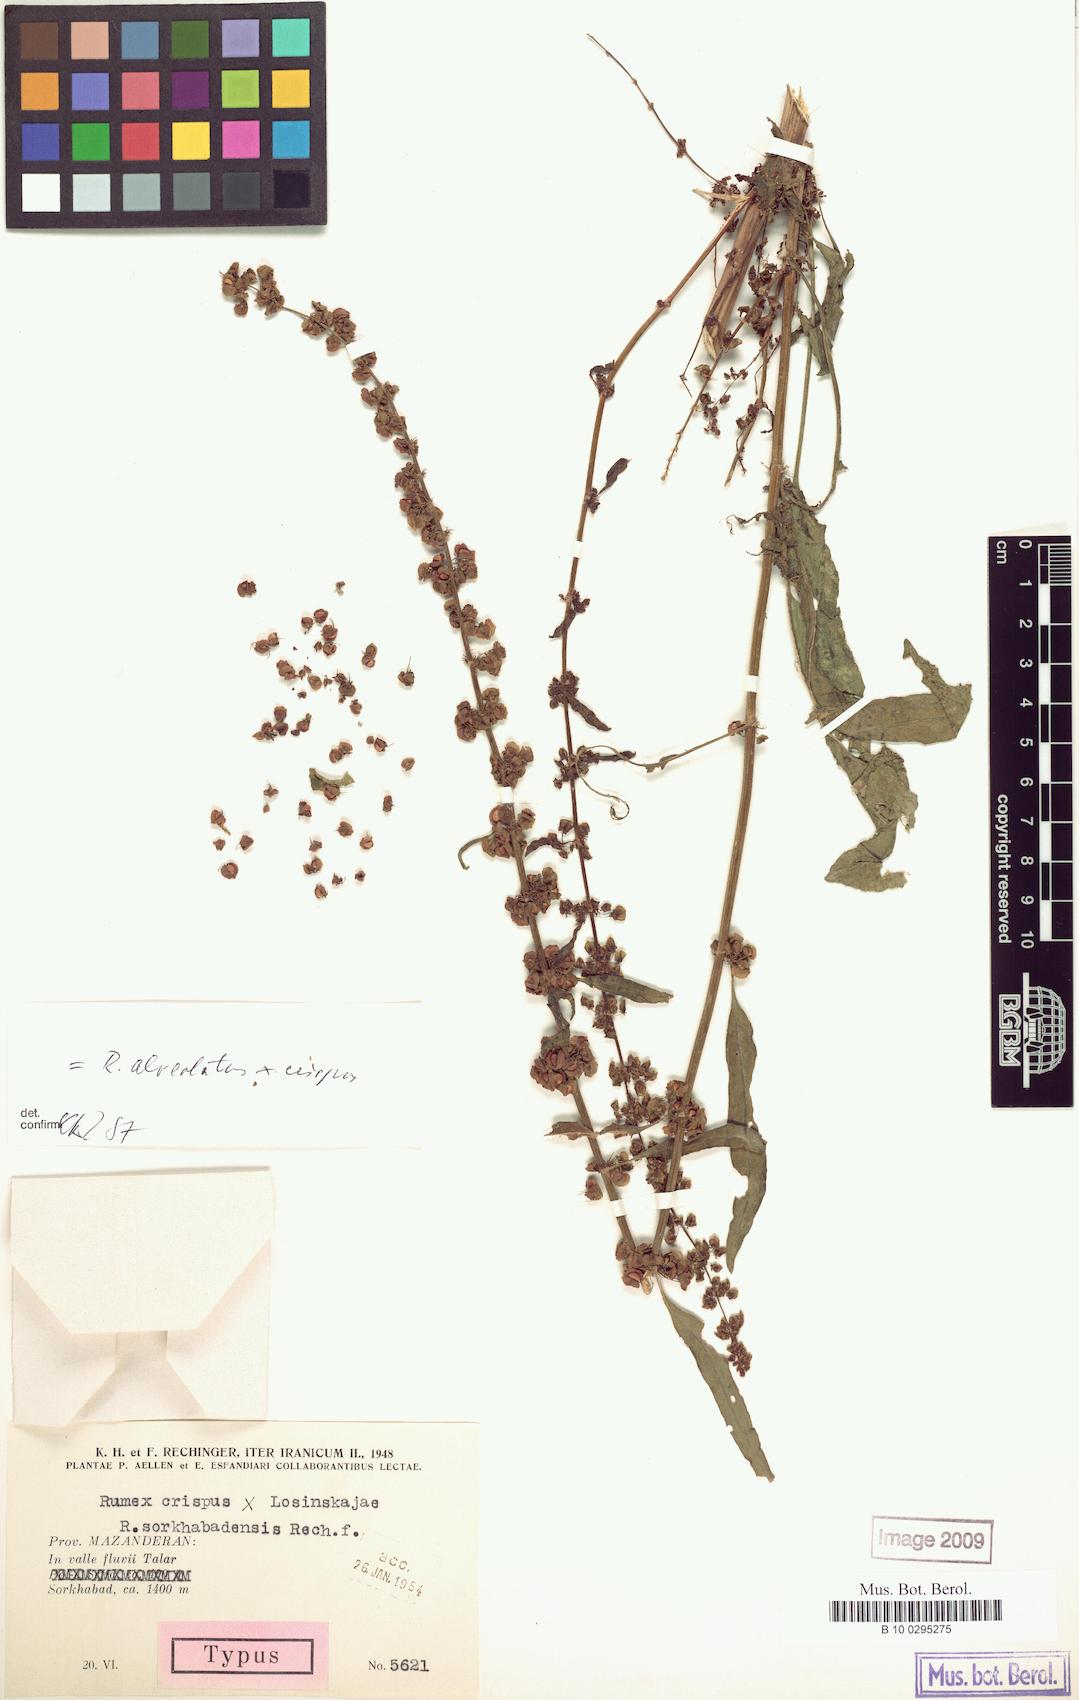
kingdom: Plantae
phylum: Tracheophyta
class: Magnoliopsida
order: Caryophyllales
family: Polygonaceae
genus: Rumex
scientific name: Rumex sorkhabadensis
